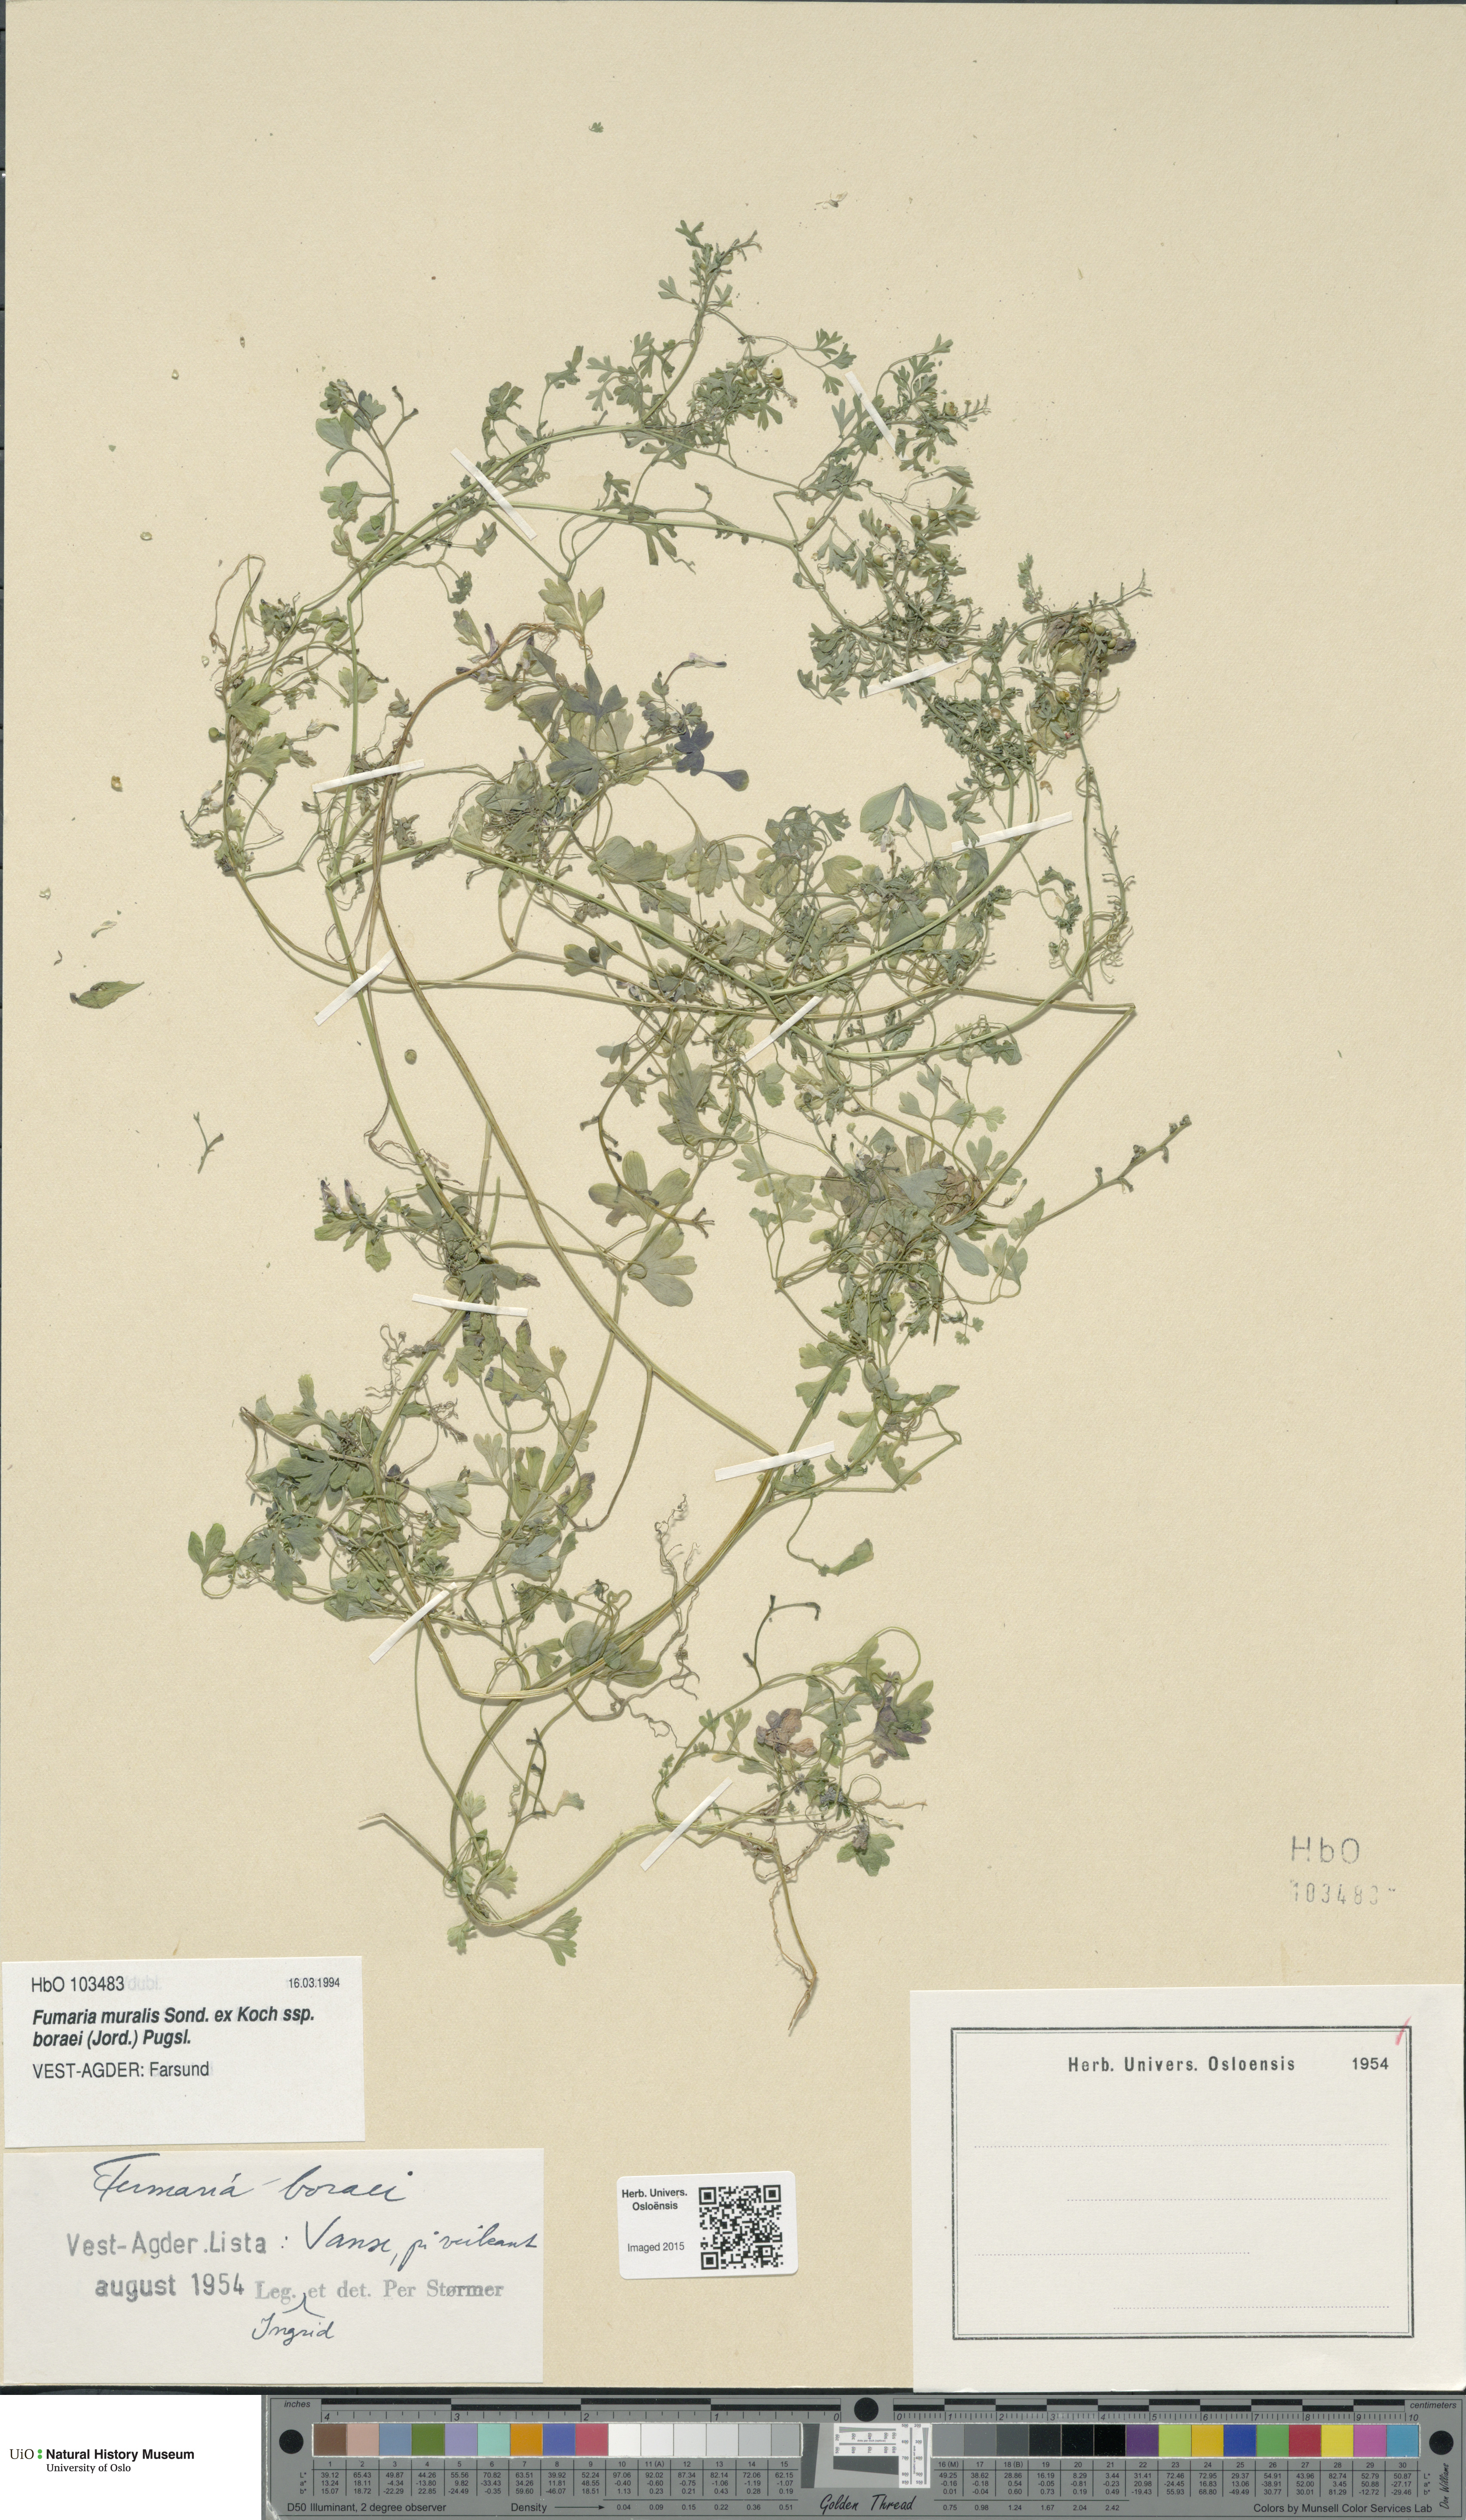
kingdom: Plantae
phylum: Tracheophyta
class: Magnoliopsida
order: Ranunculales
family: Papaveraceae
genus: Fumaria
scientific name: Fumaria muralis
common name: Common ramping-fumitory
